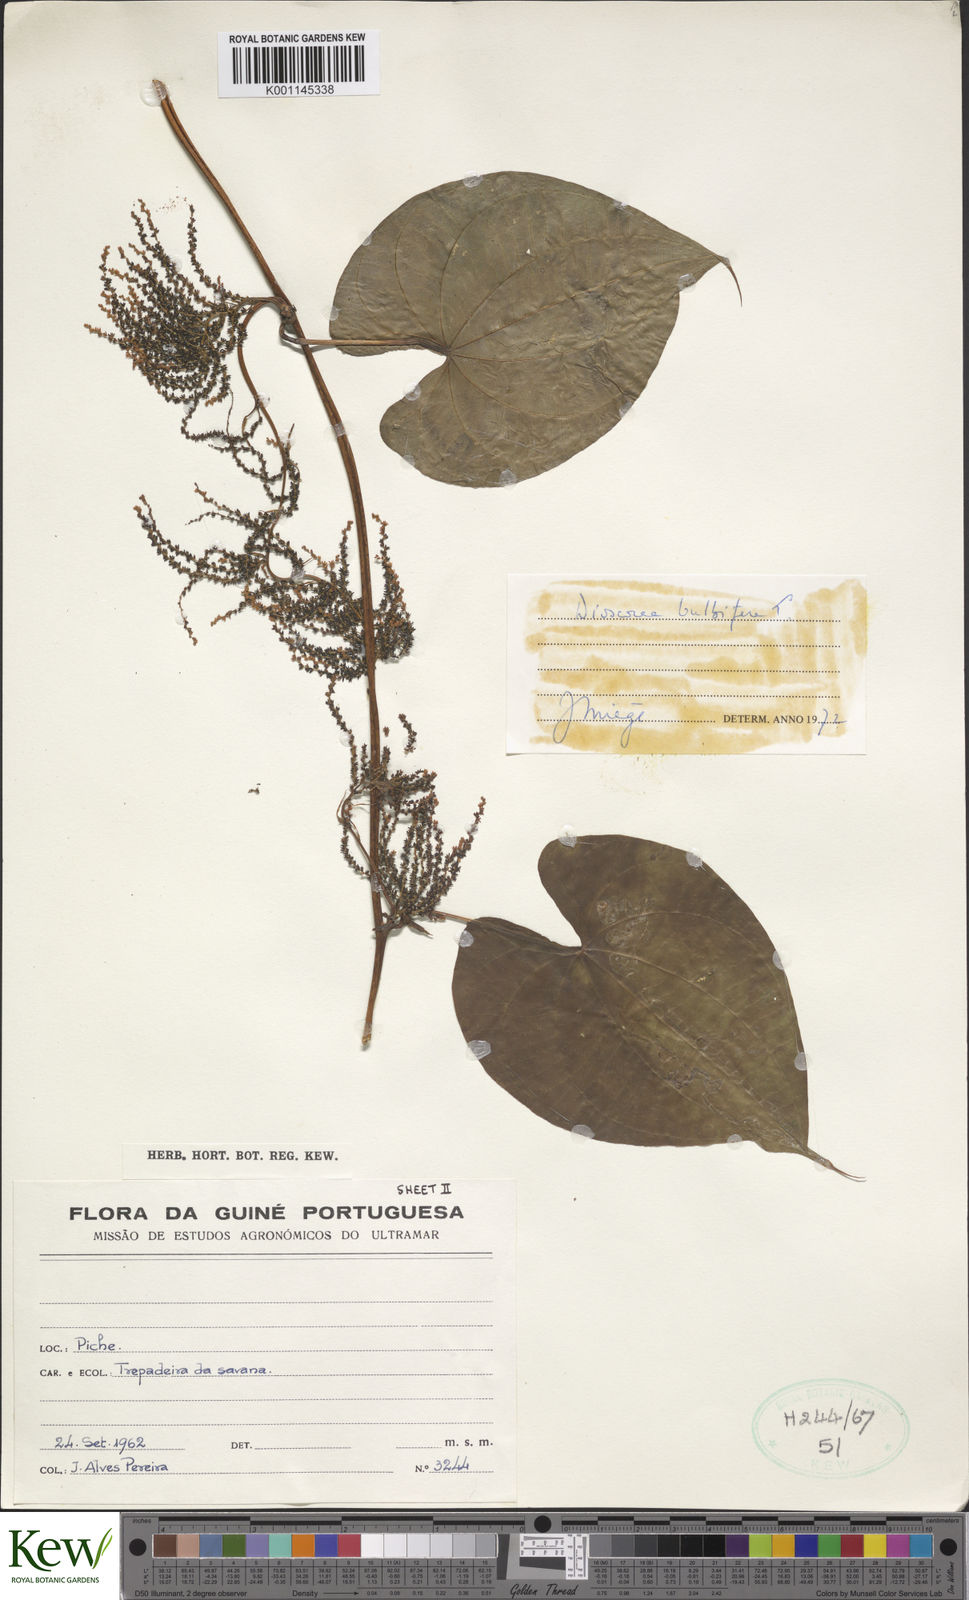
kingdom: Plantae
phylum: Tracheophyta
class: Liliopsida
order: Dioscoreales
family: Dioscoreaceae
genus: Dioscorea
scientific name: Dioscorea bulbifera
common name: Air yam
